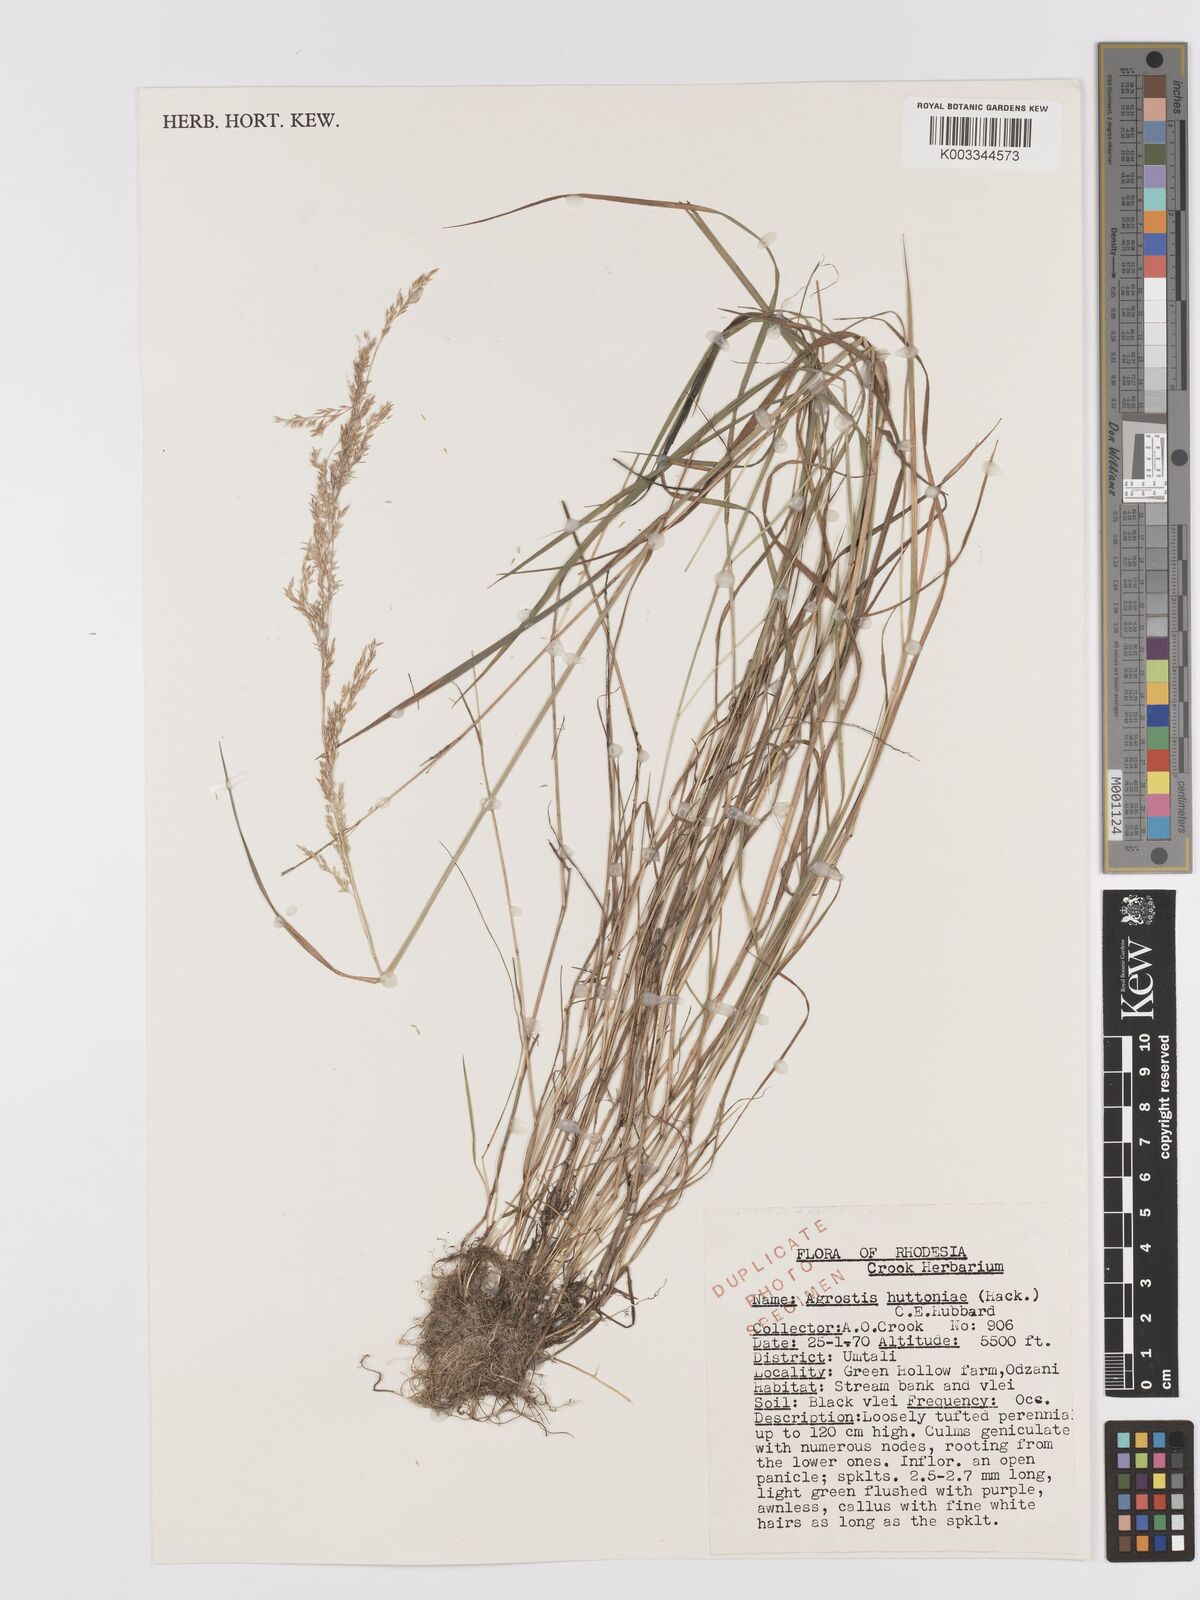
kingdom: Plantae
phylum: Tracheophyta
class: Liliopsida
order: Poales
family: Poaceae
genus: Lachnagrostis
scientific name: Lachnagrostis lachnantha
